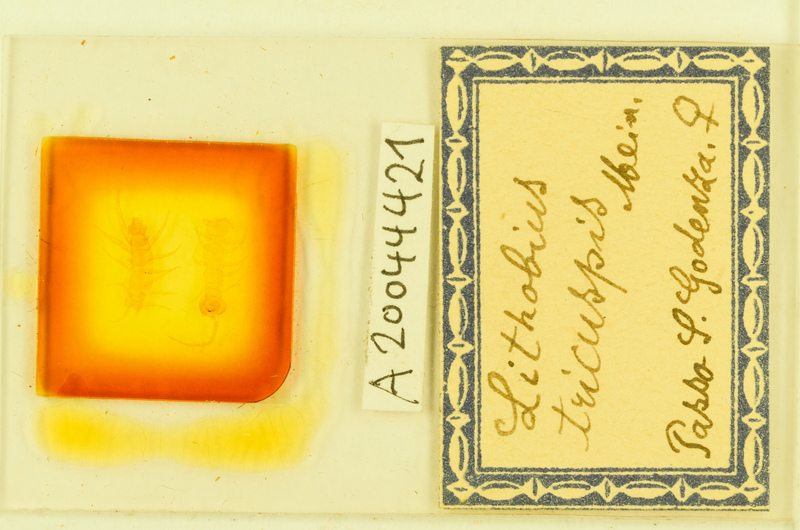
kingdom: Animalia
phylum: Arthropoda
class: Chilopoda
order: Lithobiomorpha
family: Lithobiidae
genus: Lithobius
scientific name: Lithobius tricuspis
